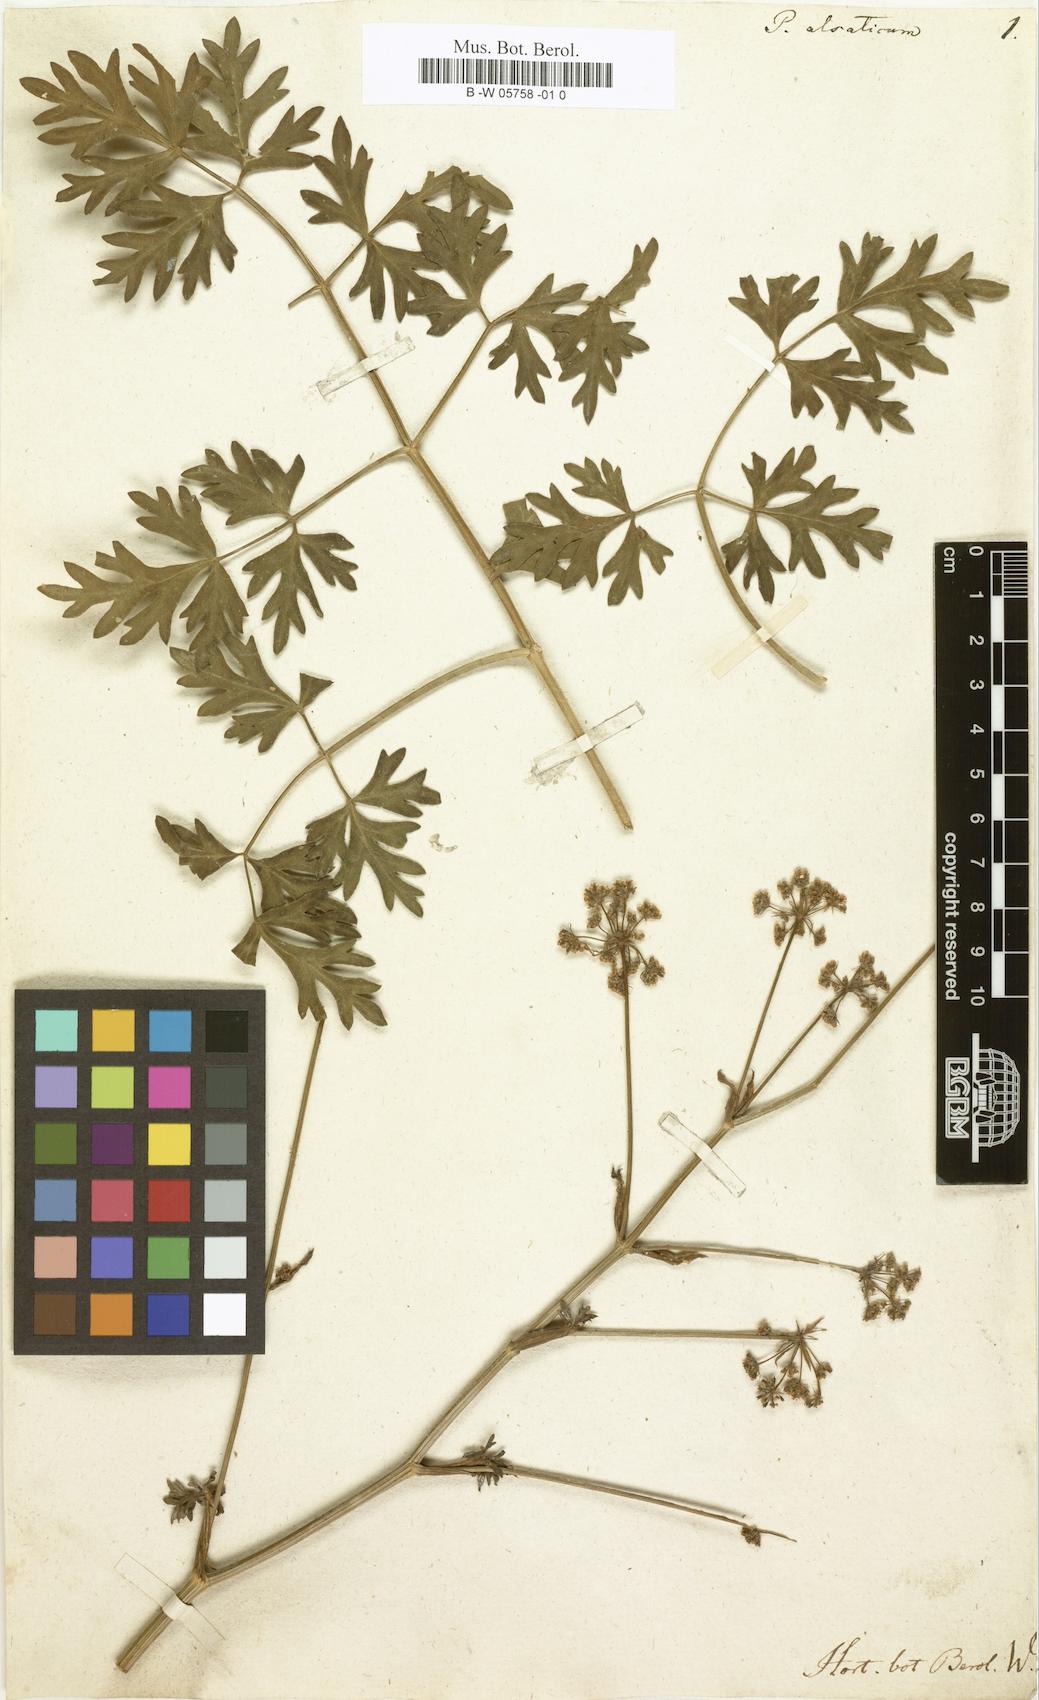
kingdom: Plantae
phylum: Tracheophyta
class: Magnoliopsida
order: Apiales
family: Apiaceae
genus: Xanthoselinum
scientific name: Xanthoselinum alsaticum
